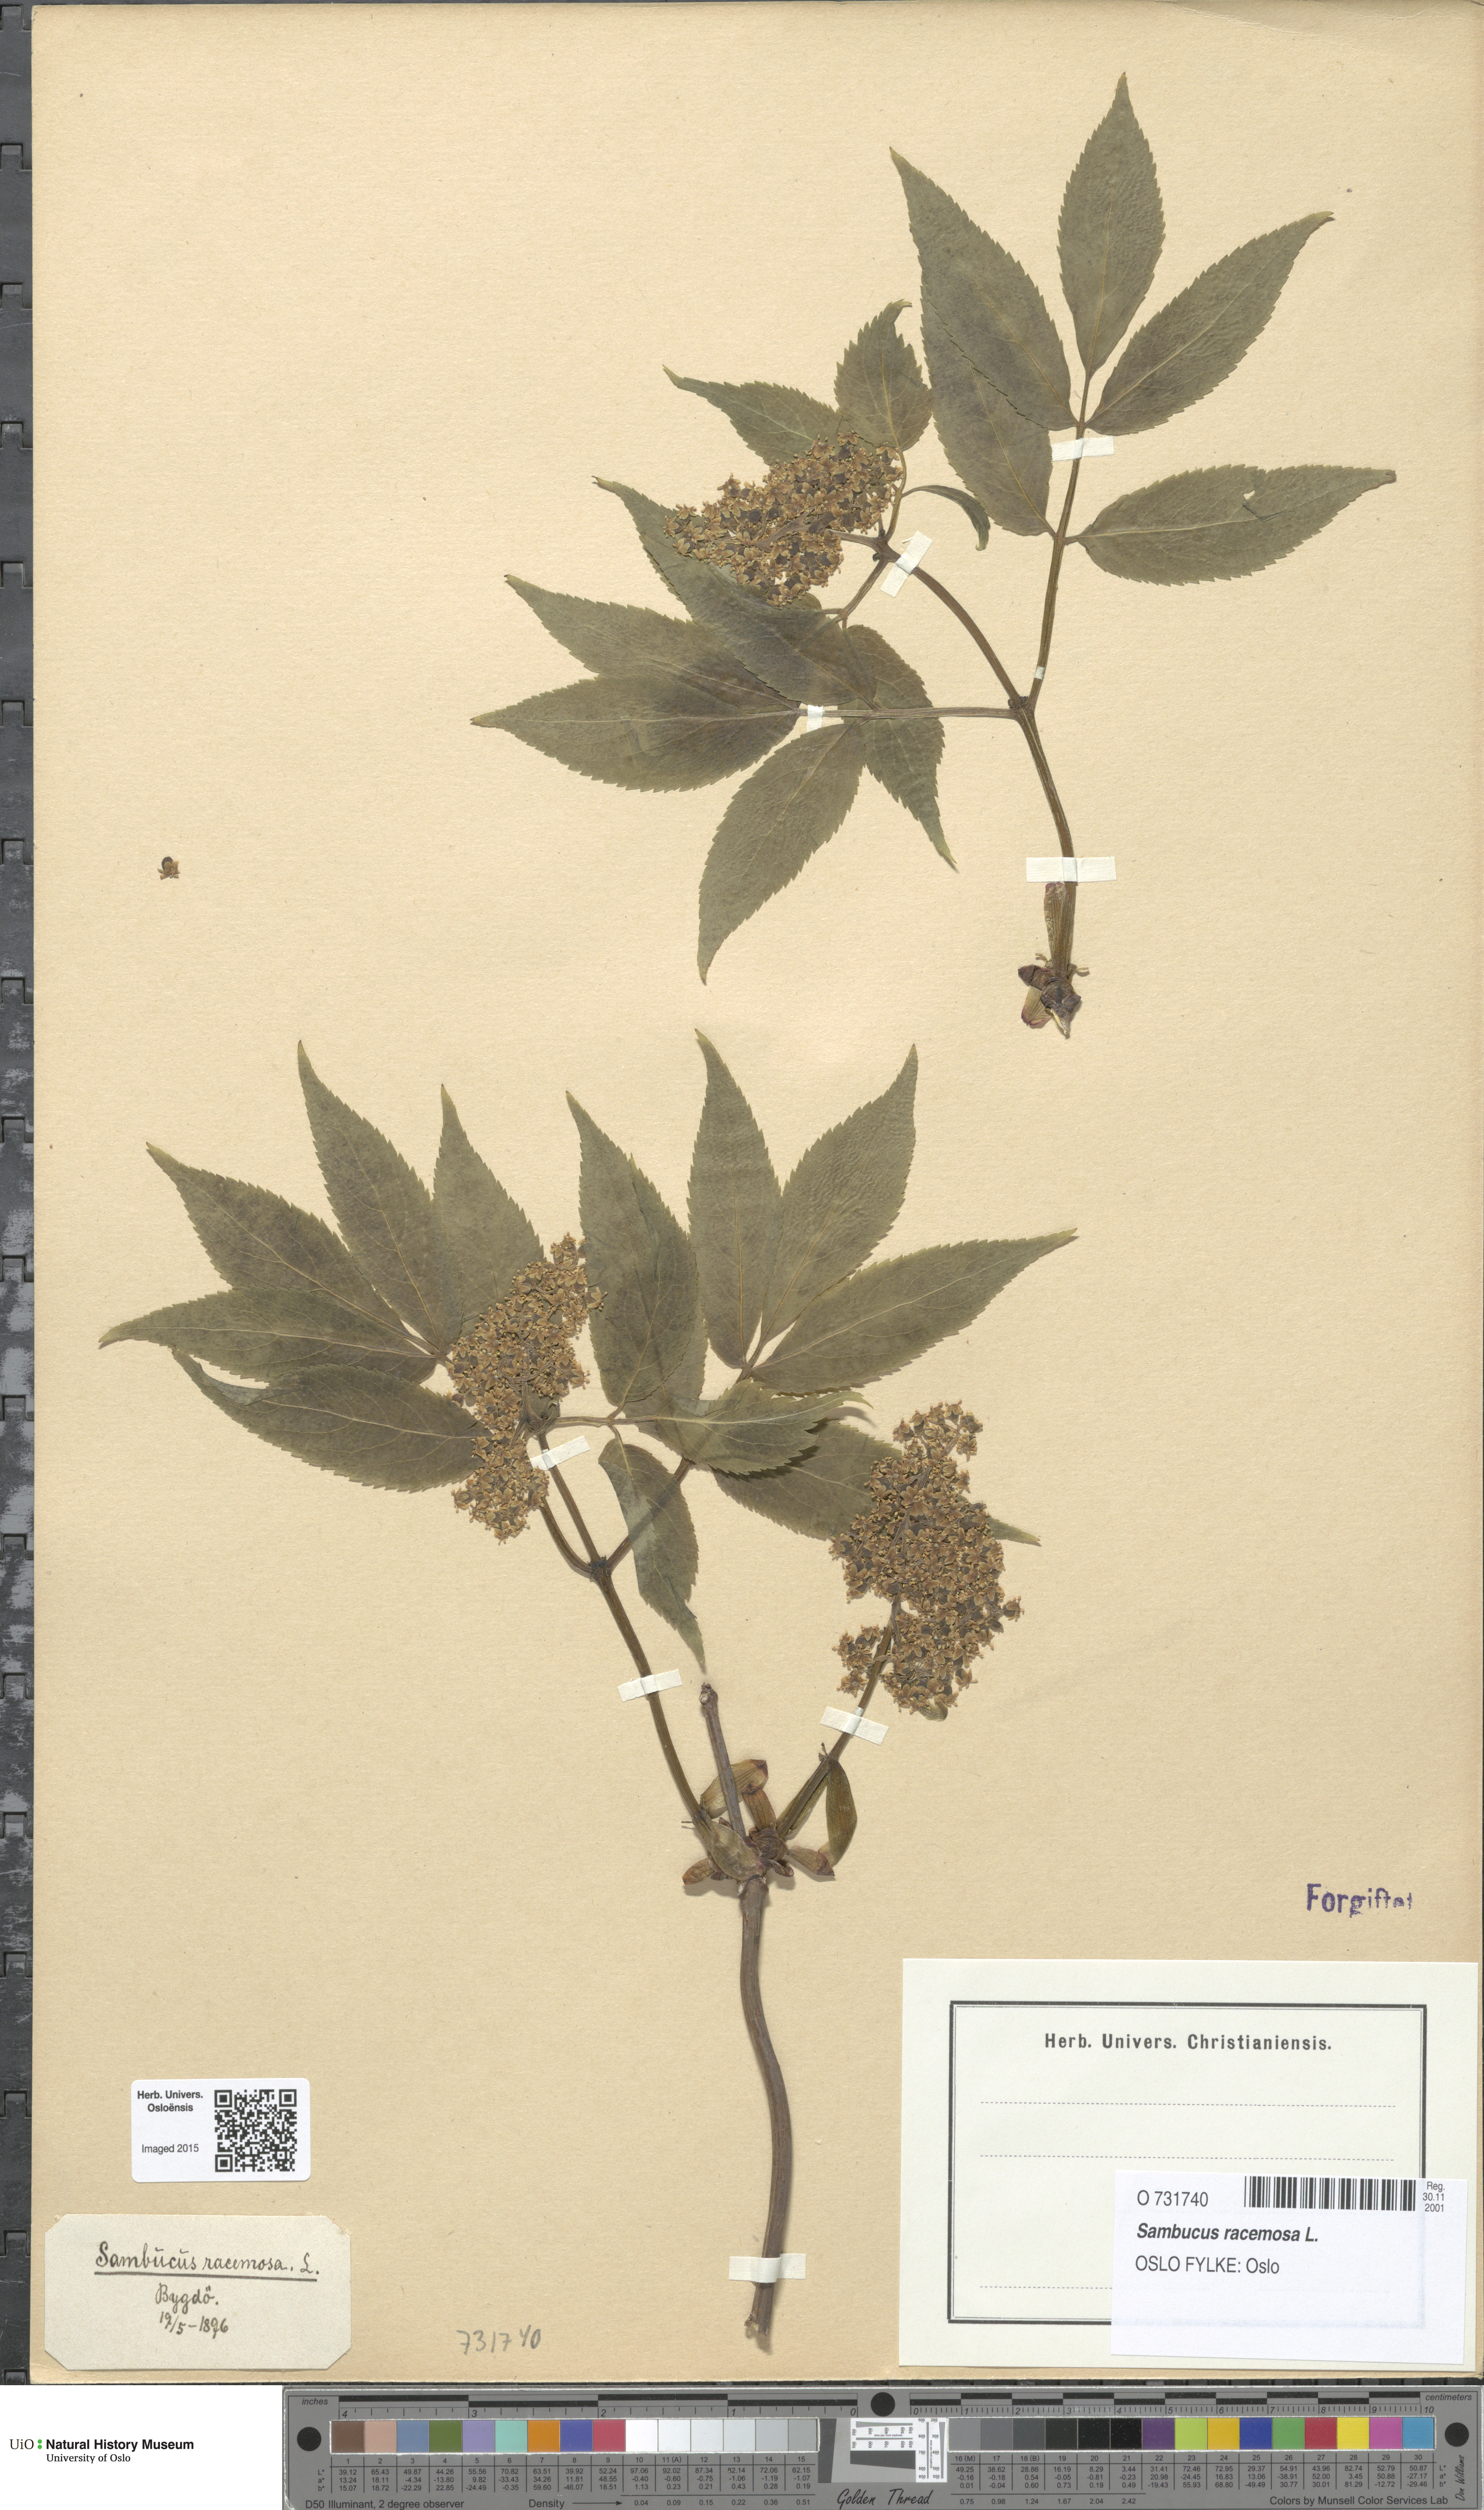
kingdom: Plantae
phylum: Tracheophyta
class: Magnoliopsida
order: Dipsacales
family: Viburnaceae
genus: Sambucus
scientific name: Sambucus racemosa
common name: Red-berried elder
